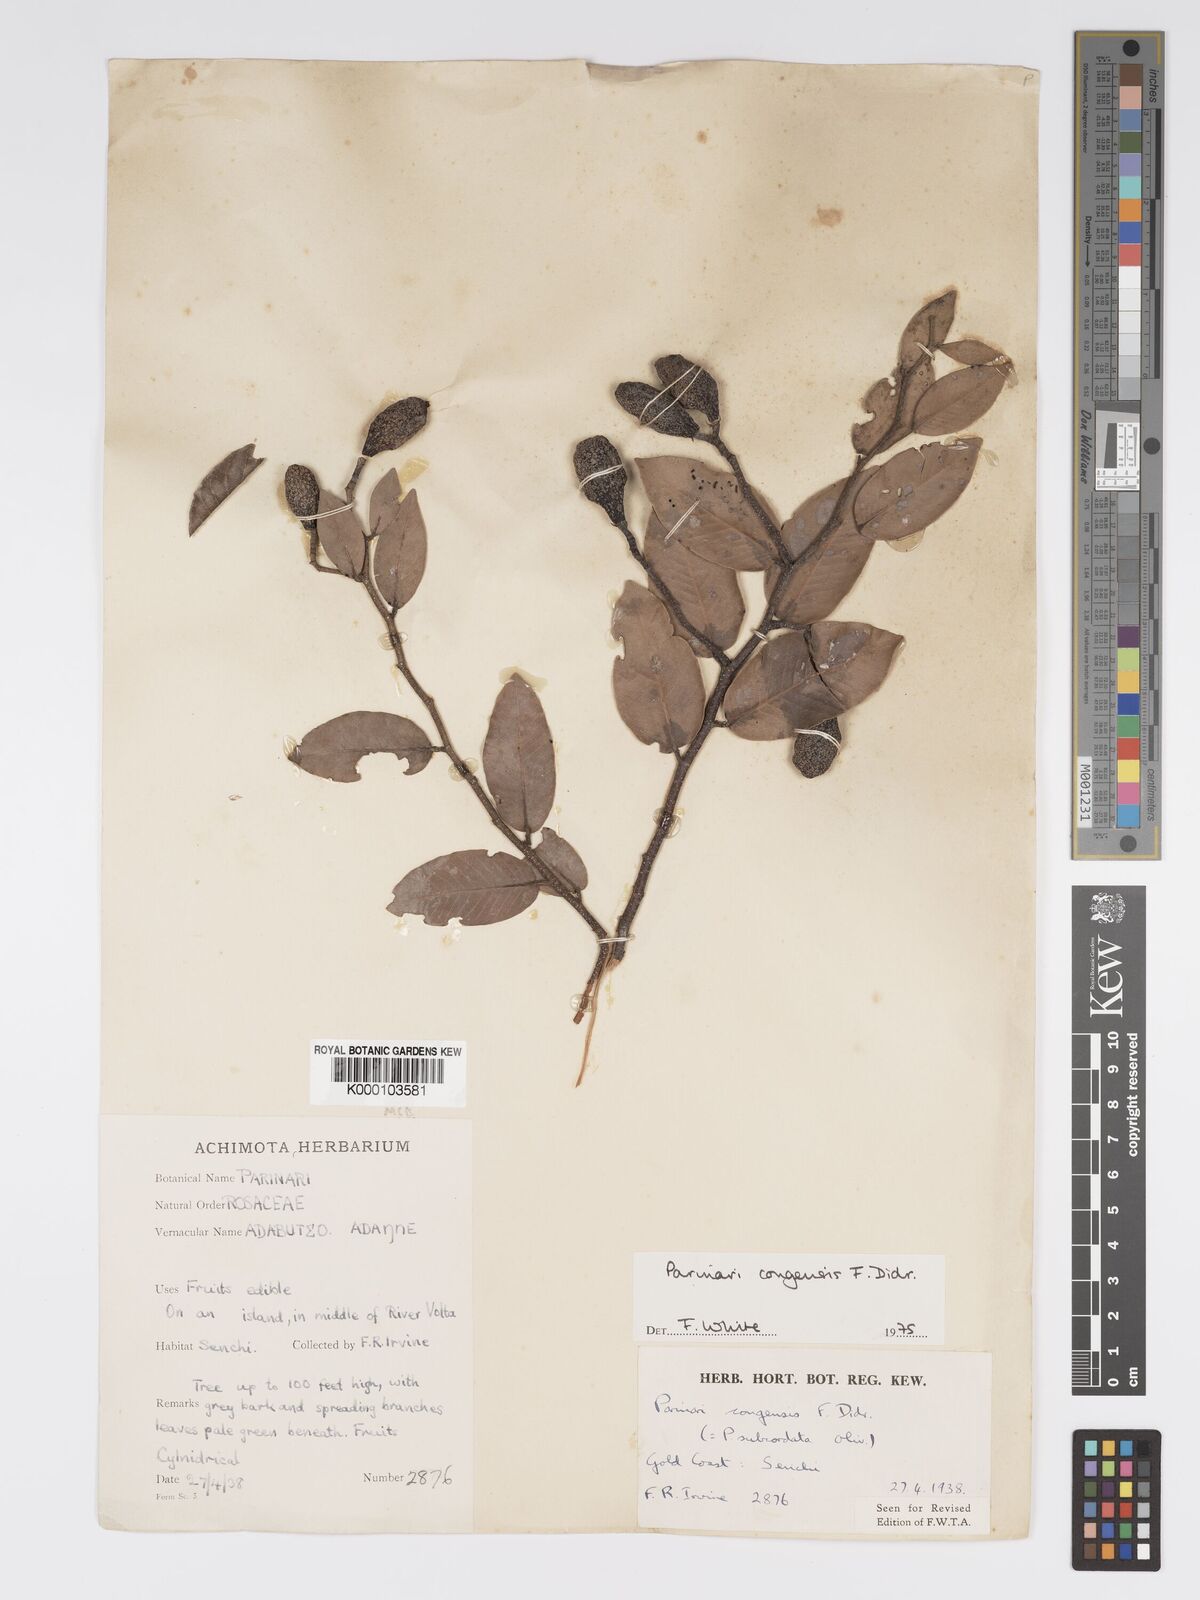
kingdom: Plantae
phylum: Tracheophyta
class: Magnoliopsida
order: Malpighiales
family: Chrysobalanaceae
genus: Parinari
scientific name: Parinari congensis
